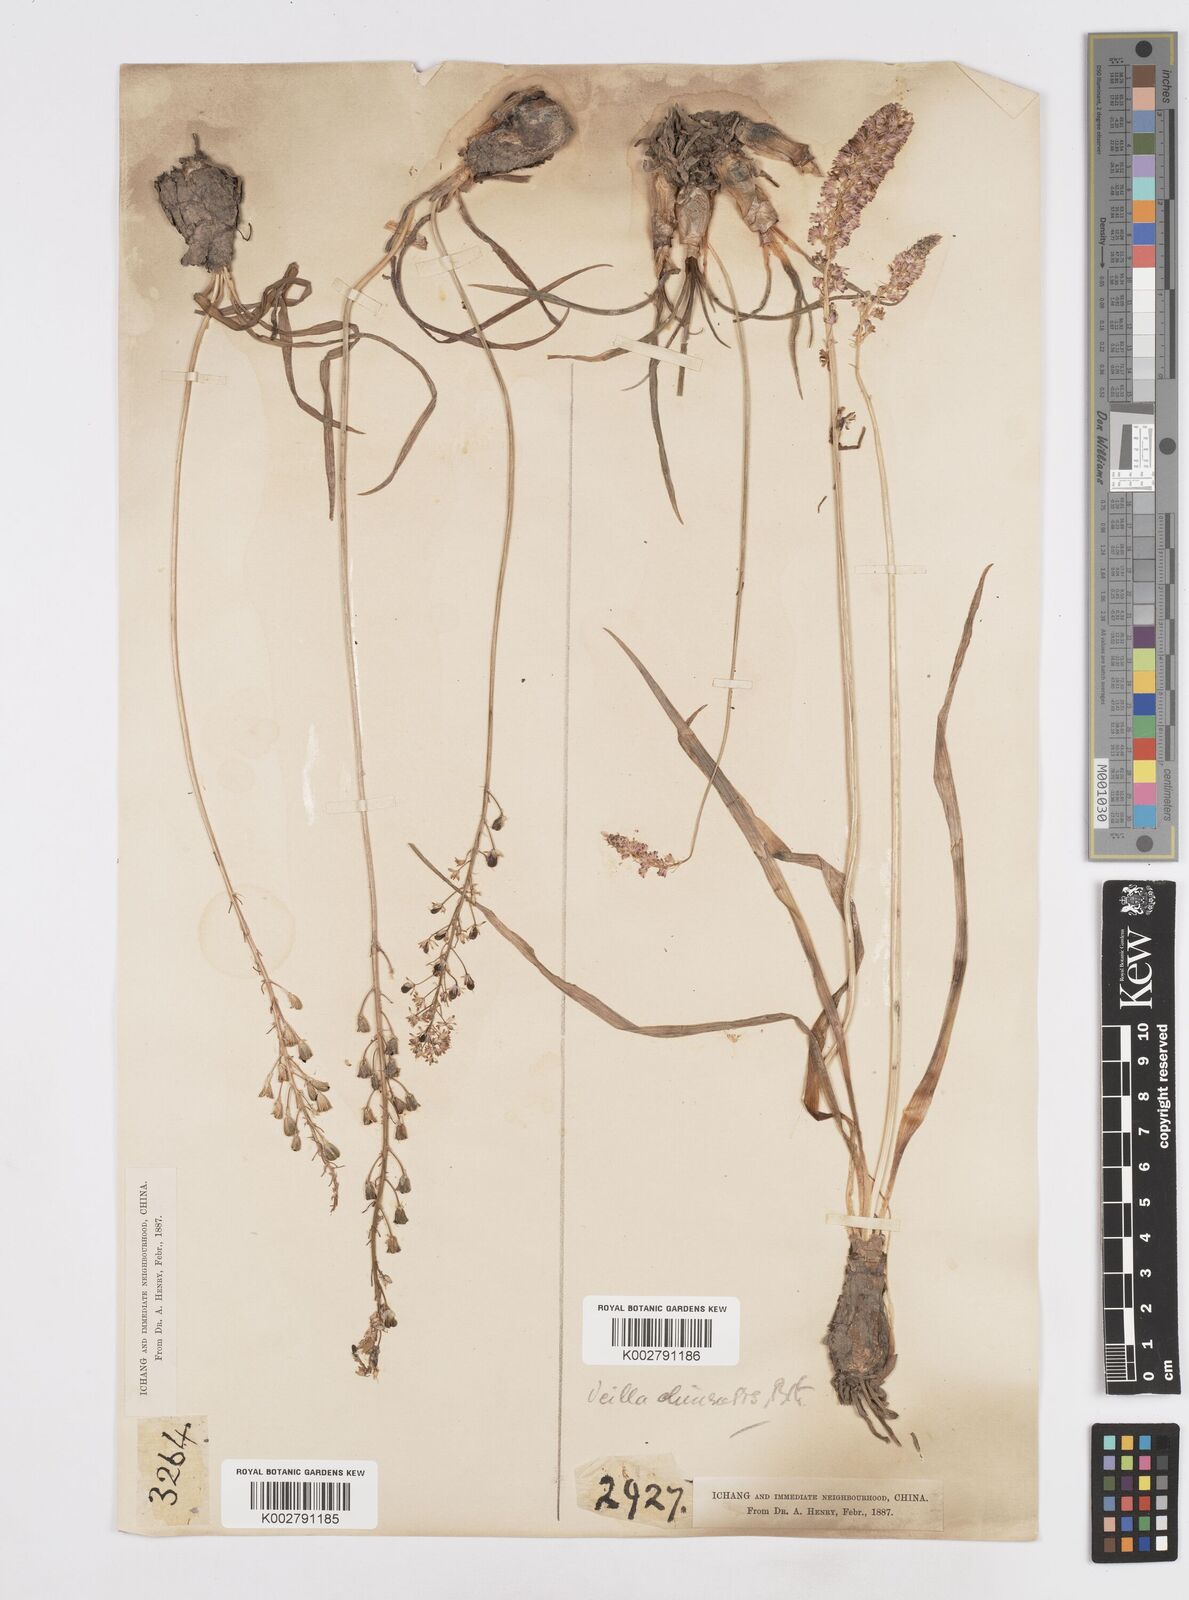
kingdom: Plantae
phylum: Tracheophyta
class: Liliopsida
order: Asparagales
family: Asparagaceae
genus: Barnardia
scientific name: Barnardia japonica
